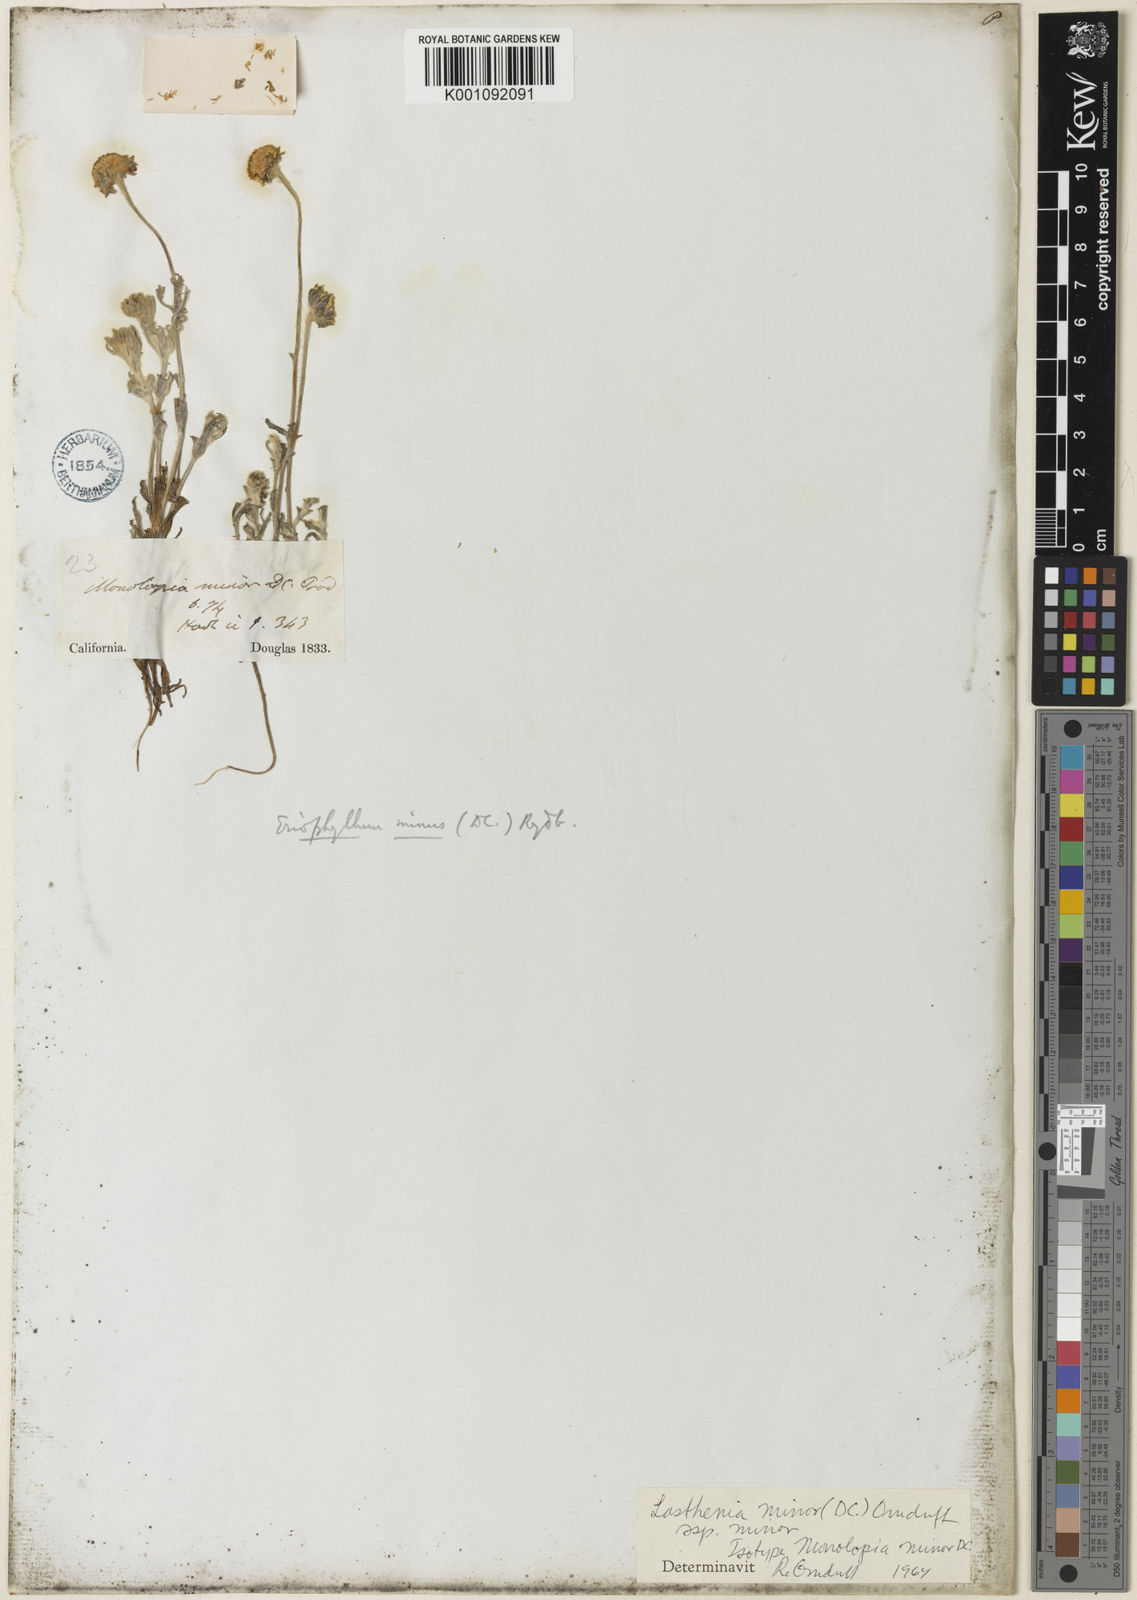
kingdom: Plantae
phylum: Tracheophyta
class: Magnoliopsida
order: Asterales
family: Asteraceae
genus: Lasthenia
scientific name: Lasthenia minor
